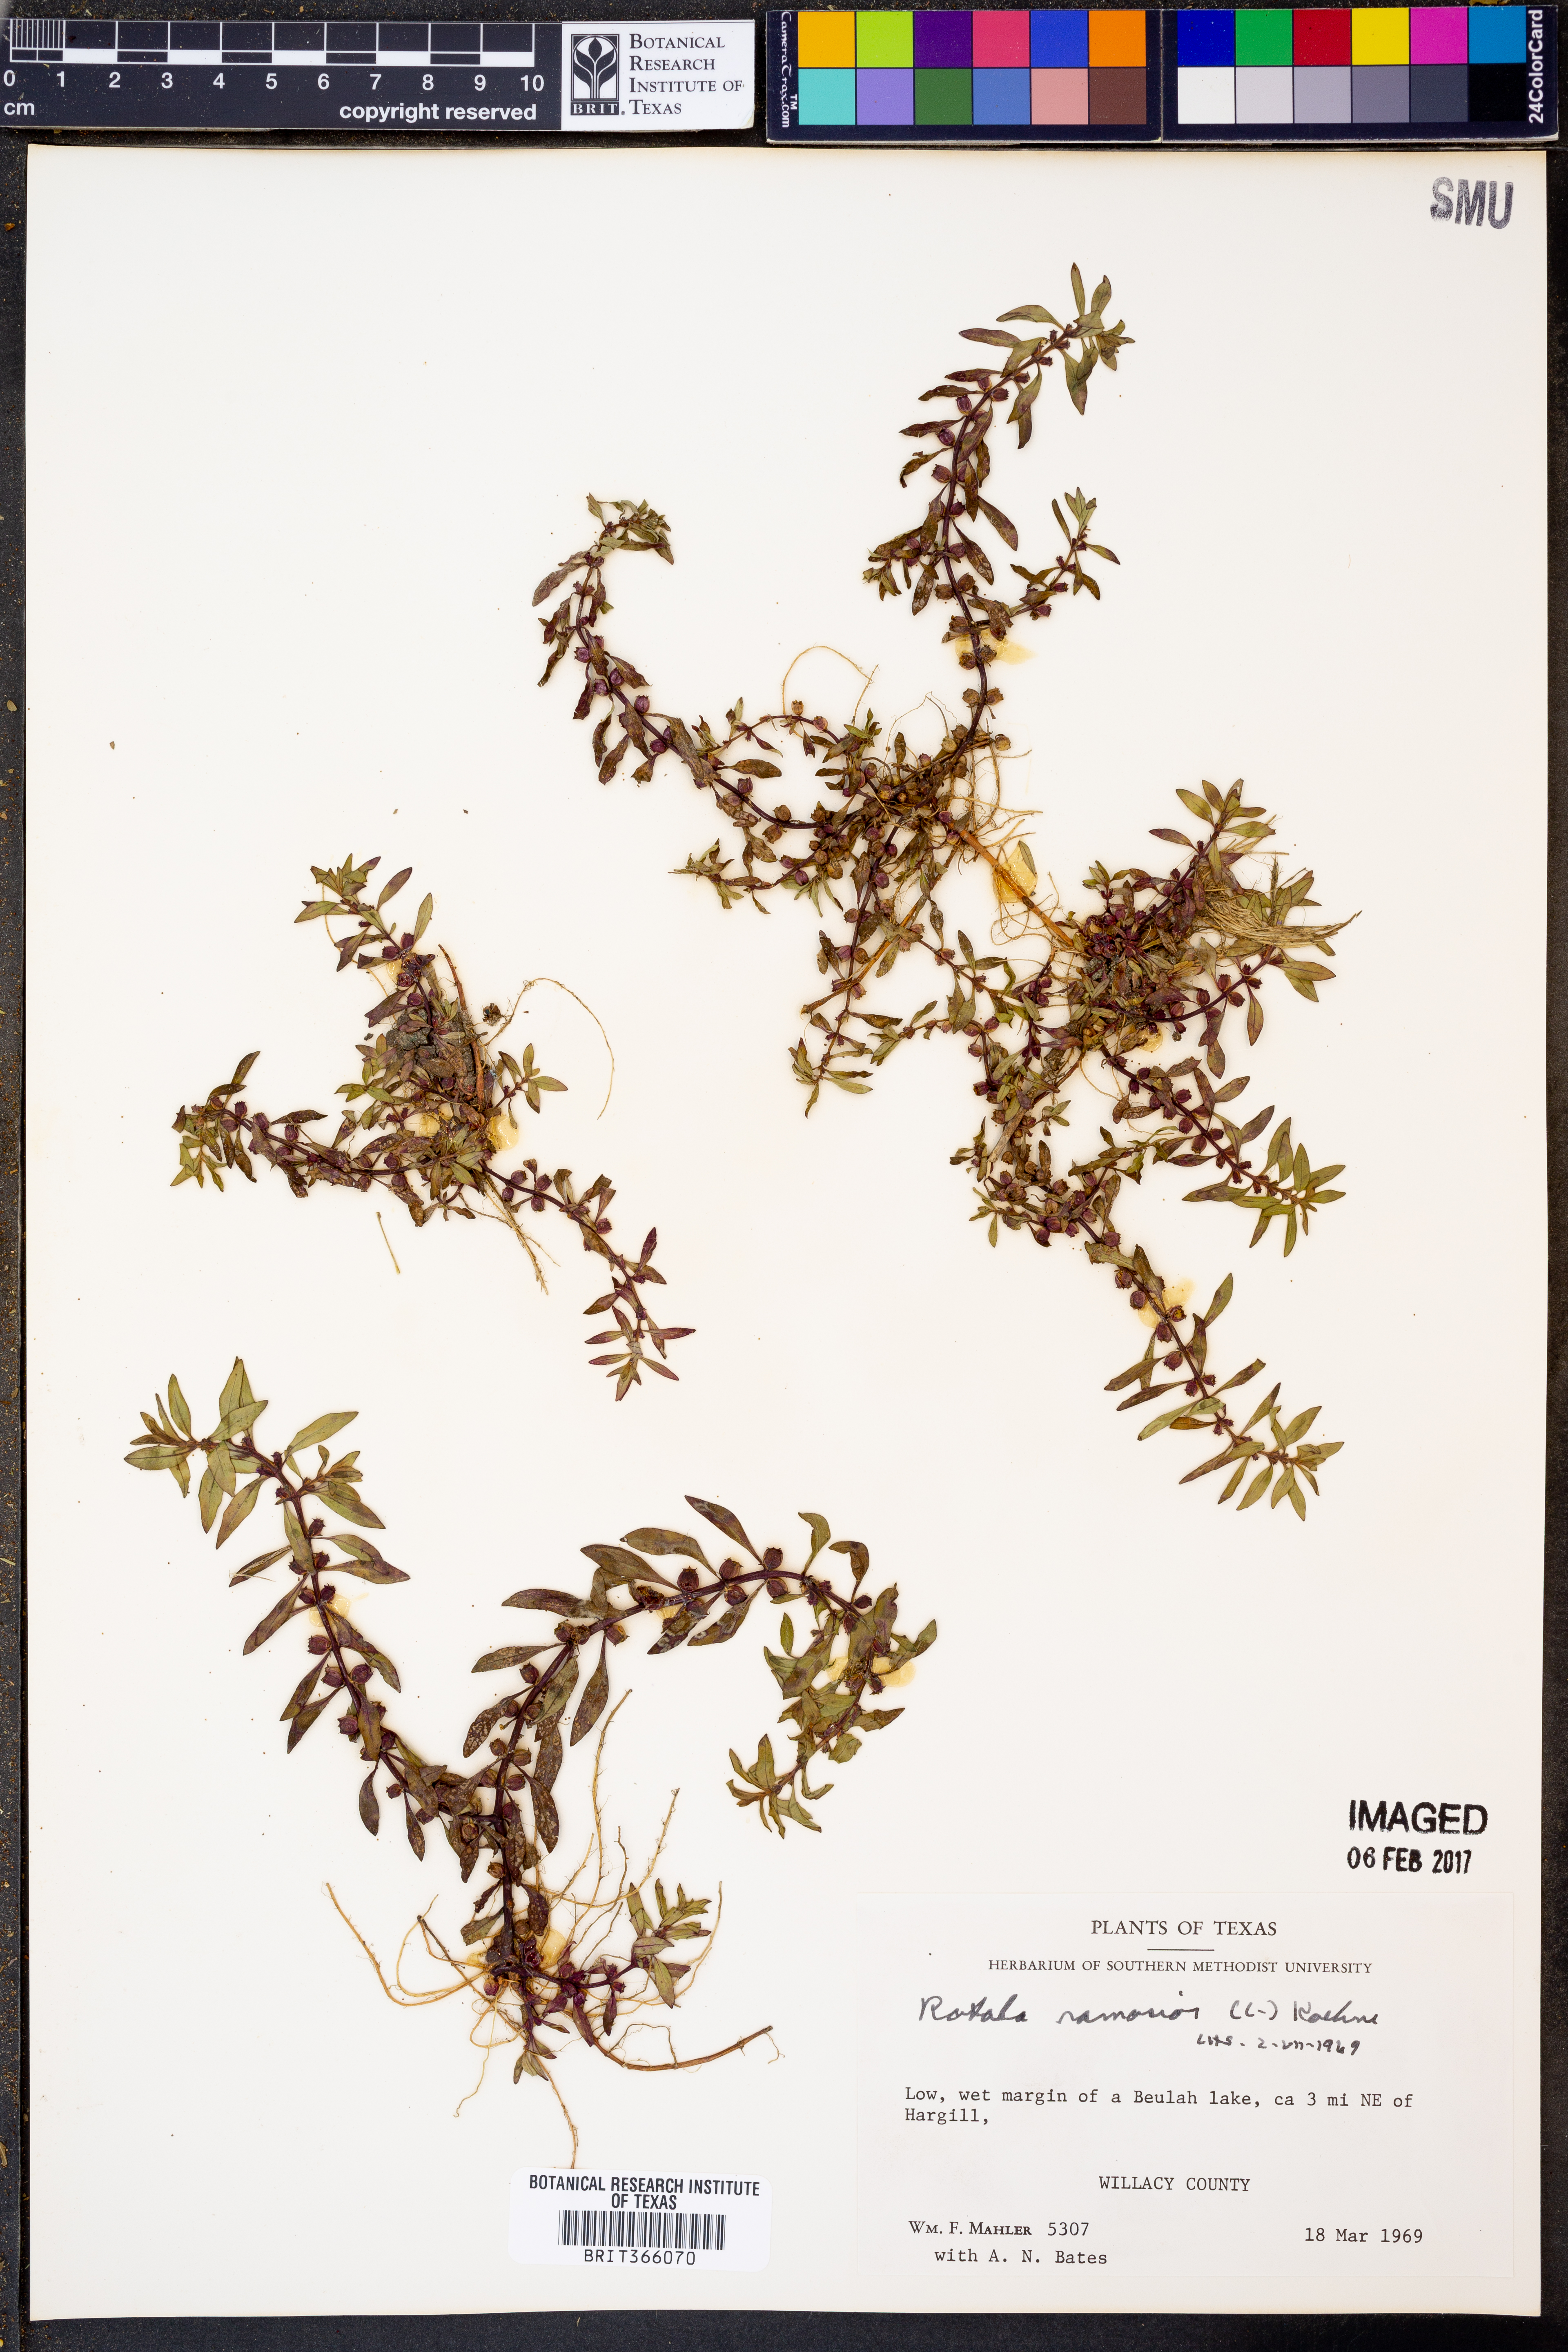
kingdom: Plantae
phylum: Tracheophyta
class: Magnoliopsida
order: Myrtales
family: Lythraceae
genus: Rotala
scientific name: Rotala ramosior
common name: Lowland rotala
